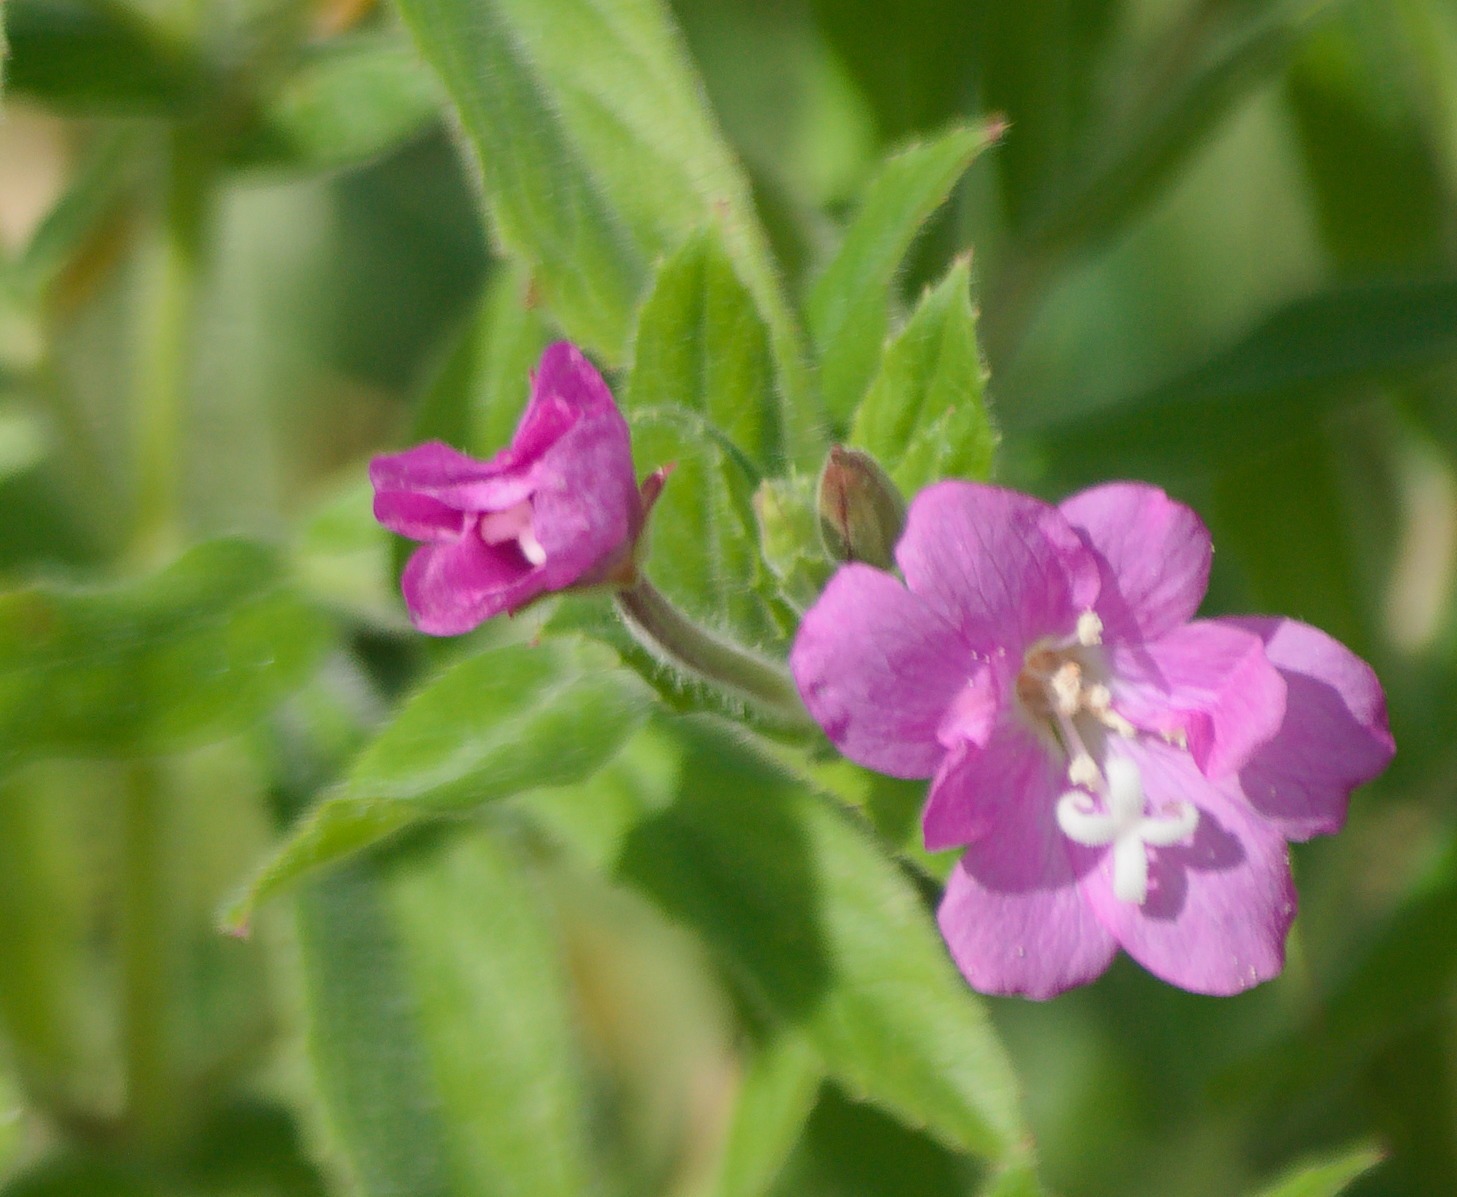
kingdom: Plantae
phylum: Tracheophyta
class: Magnoliopsida
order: Myrtales
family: Onagraceae
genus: Epilobium
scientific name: Epilobium hirsutum
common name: Lådden dueurt
